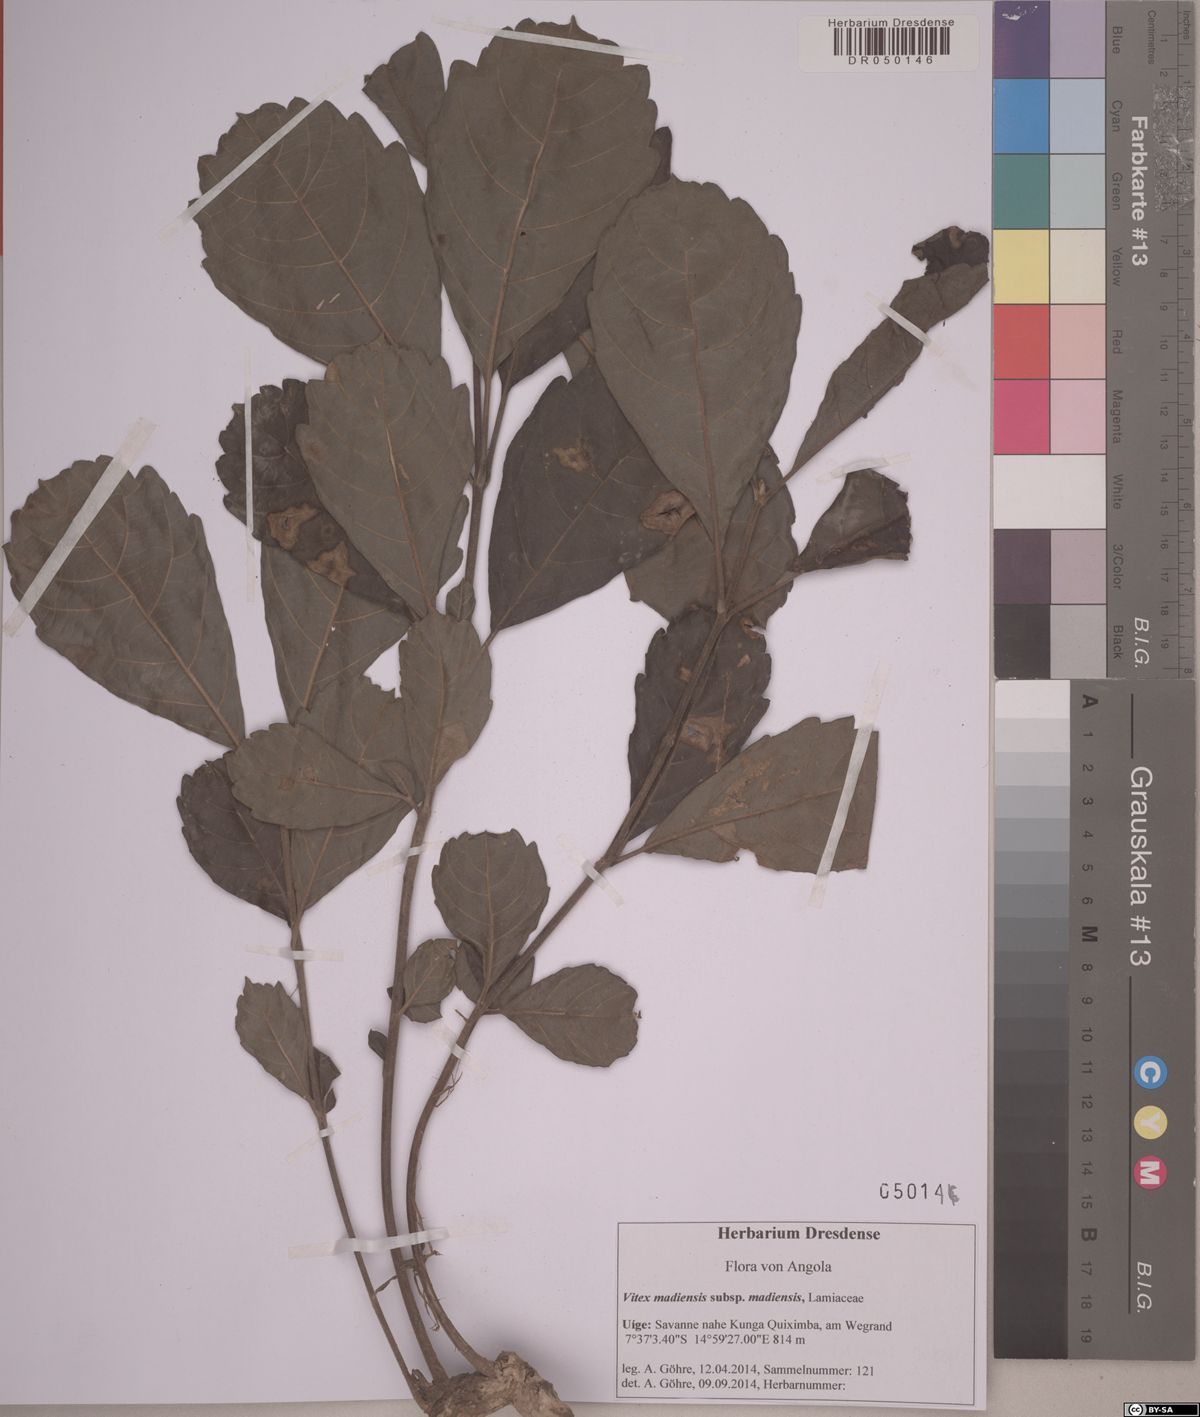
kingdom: Plantae
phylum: Tracheophyta
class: Magnoliopsida
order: Lamiales
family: Lamiaceae
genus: Vitex
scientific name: Vitex madiensis
